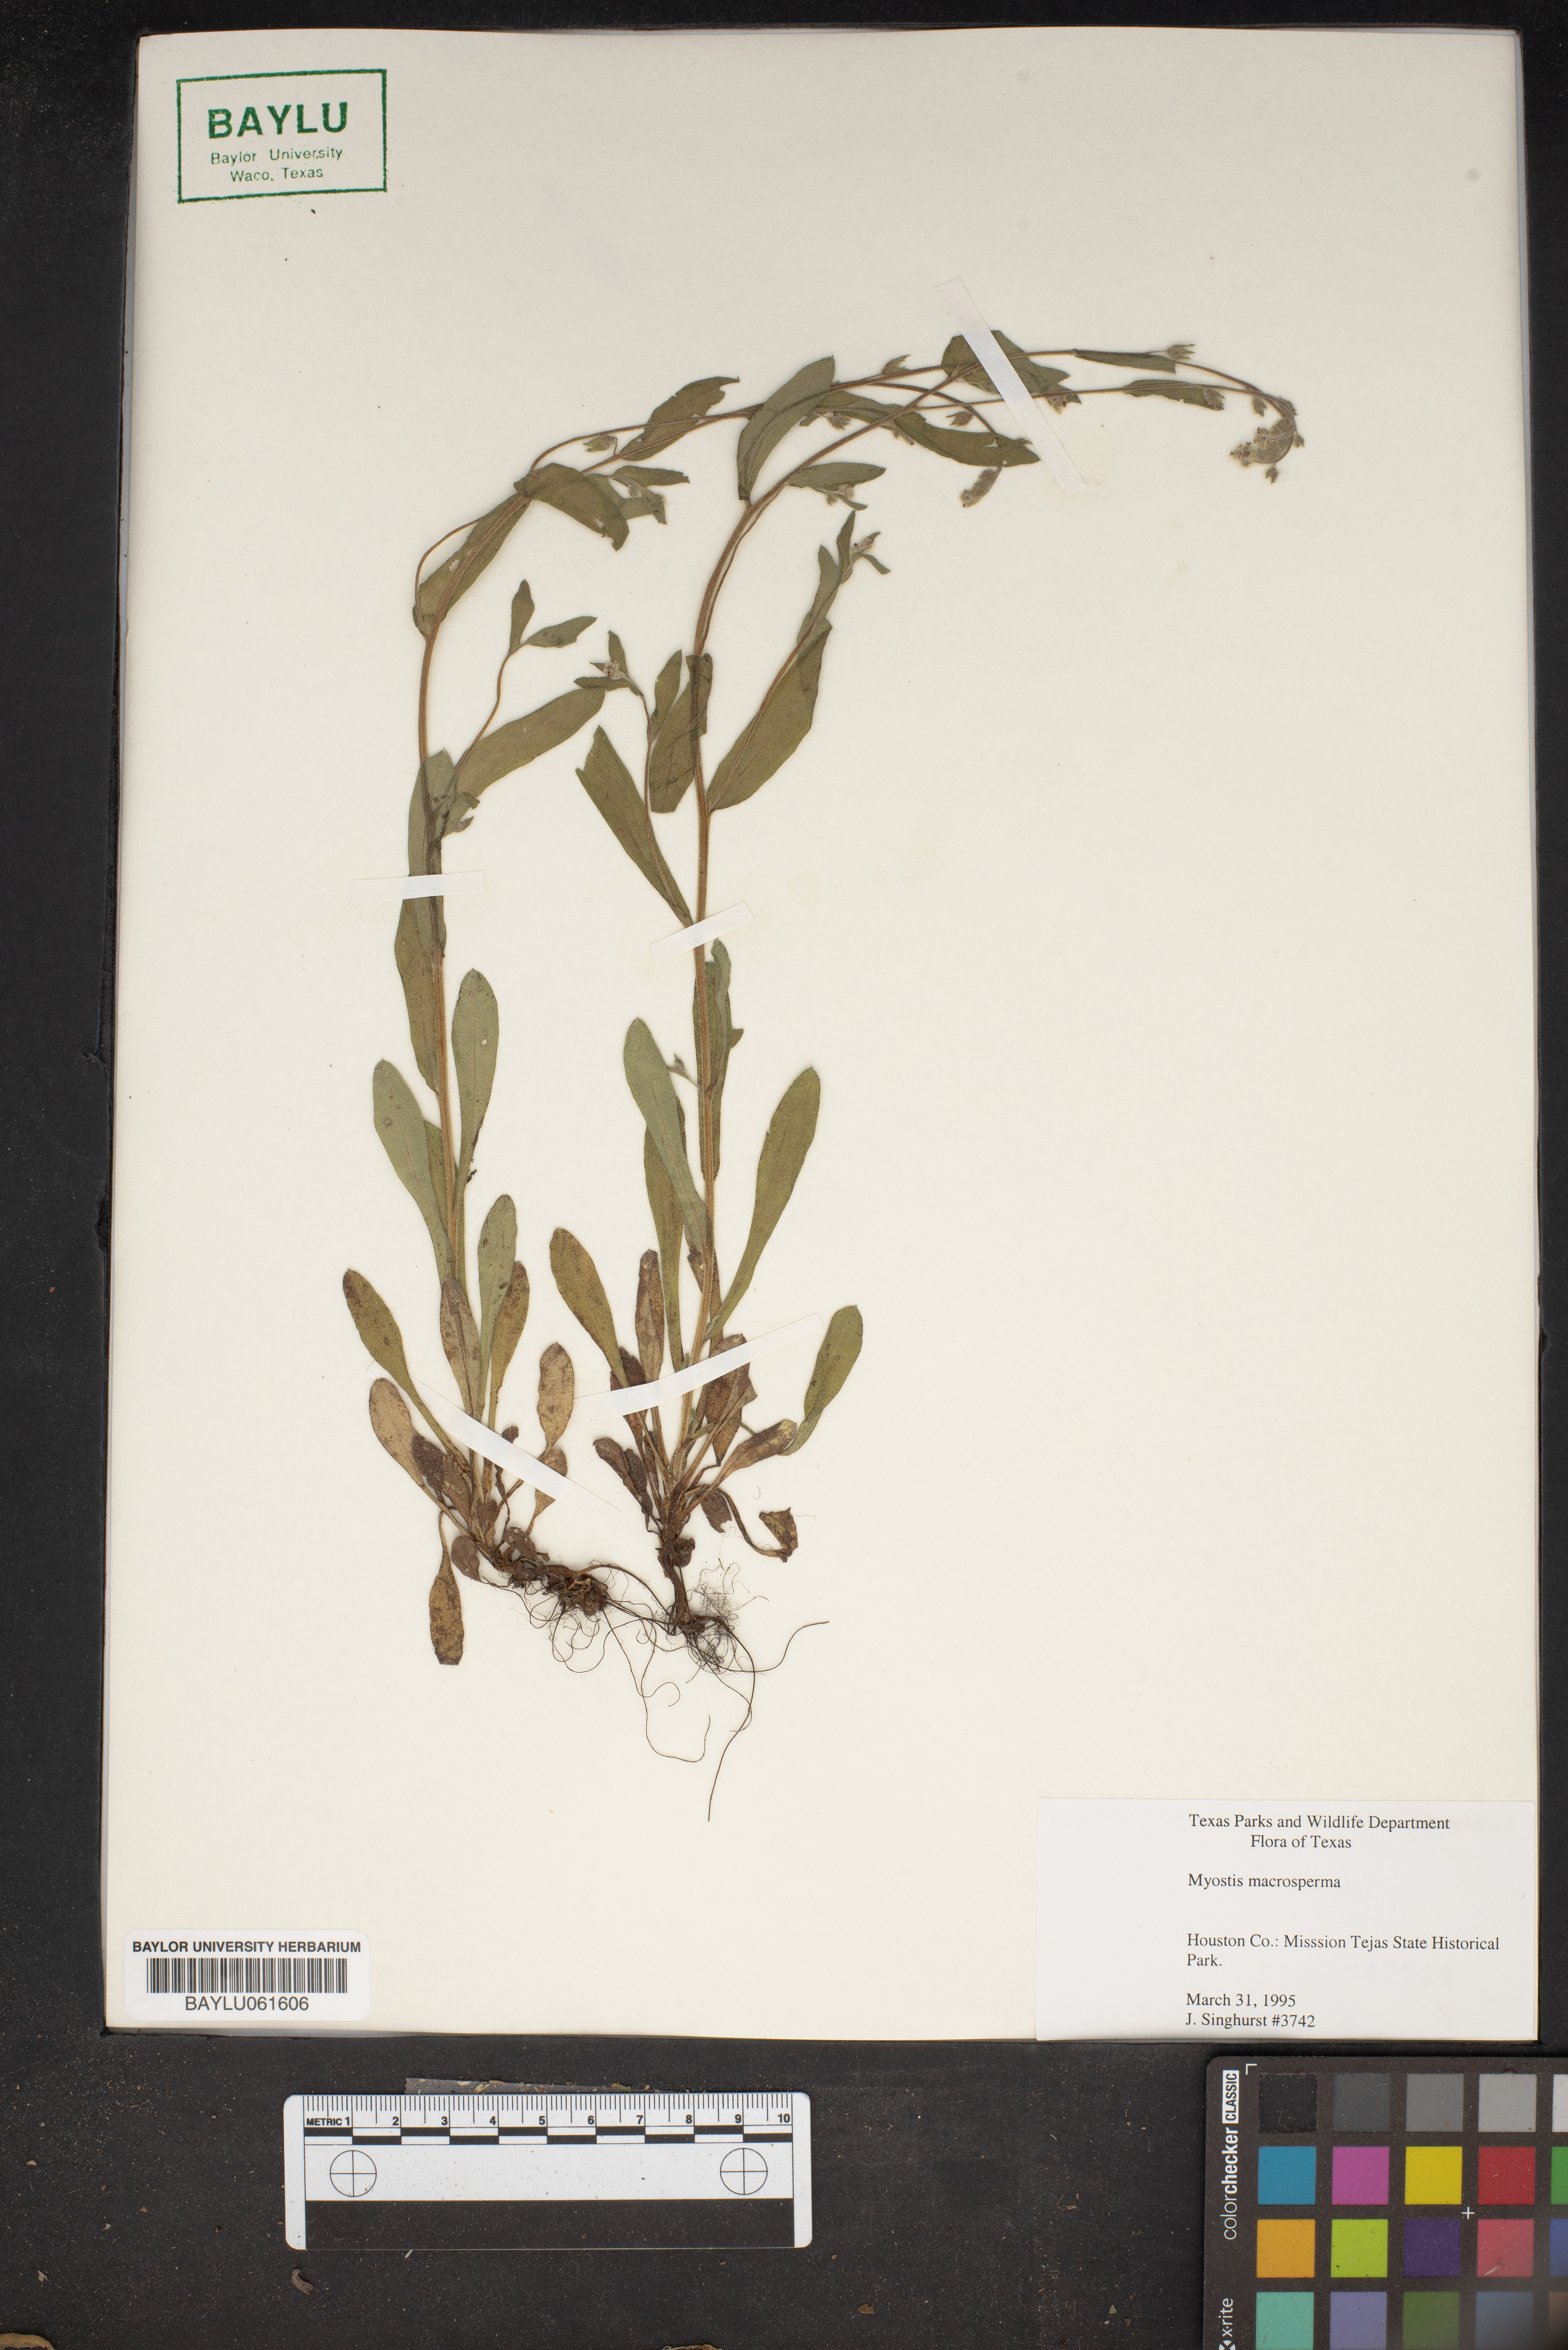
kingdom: Plantae
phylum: Tracheophyta
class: Magnoliopsida
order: Boraginales
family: Boraginaceae
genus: Myosotis
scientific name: Myosotis macrosperma
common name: Large-seed forget-me-not
